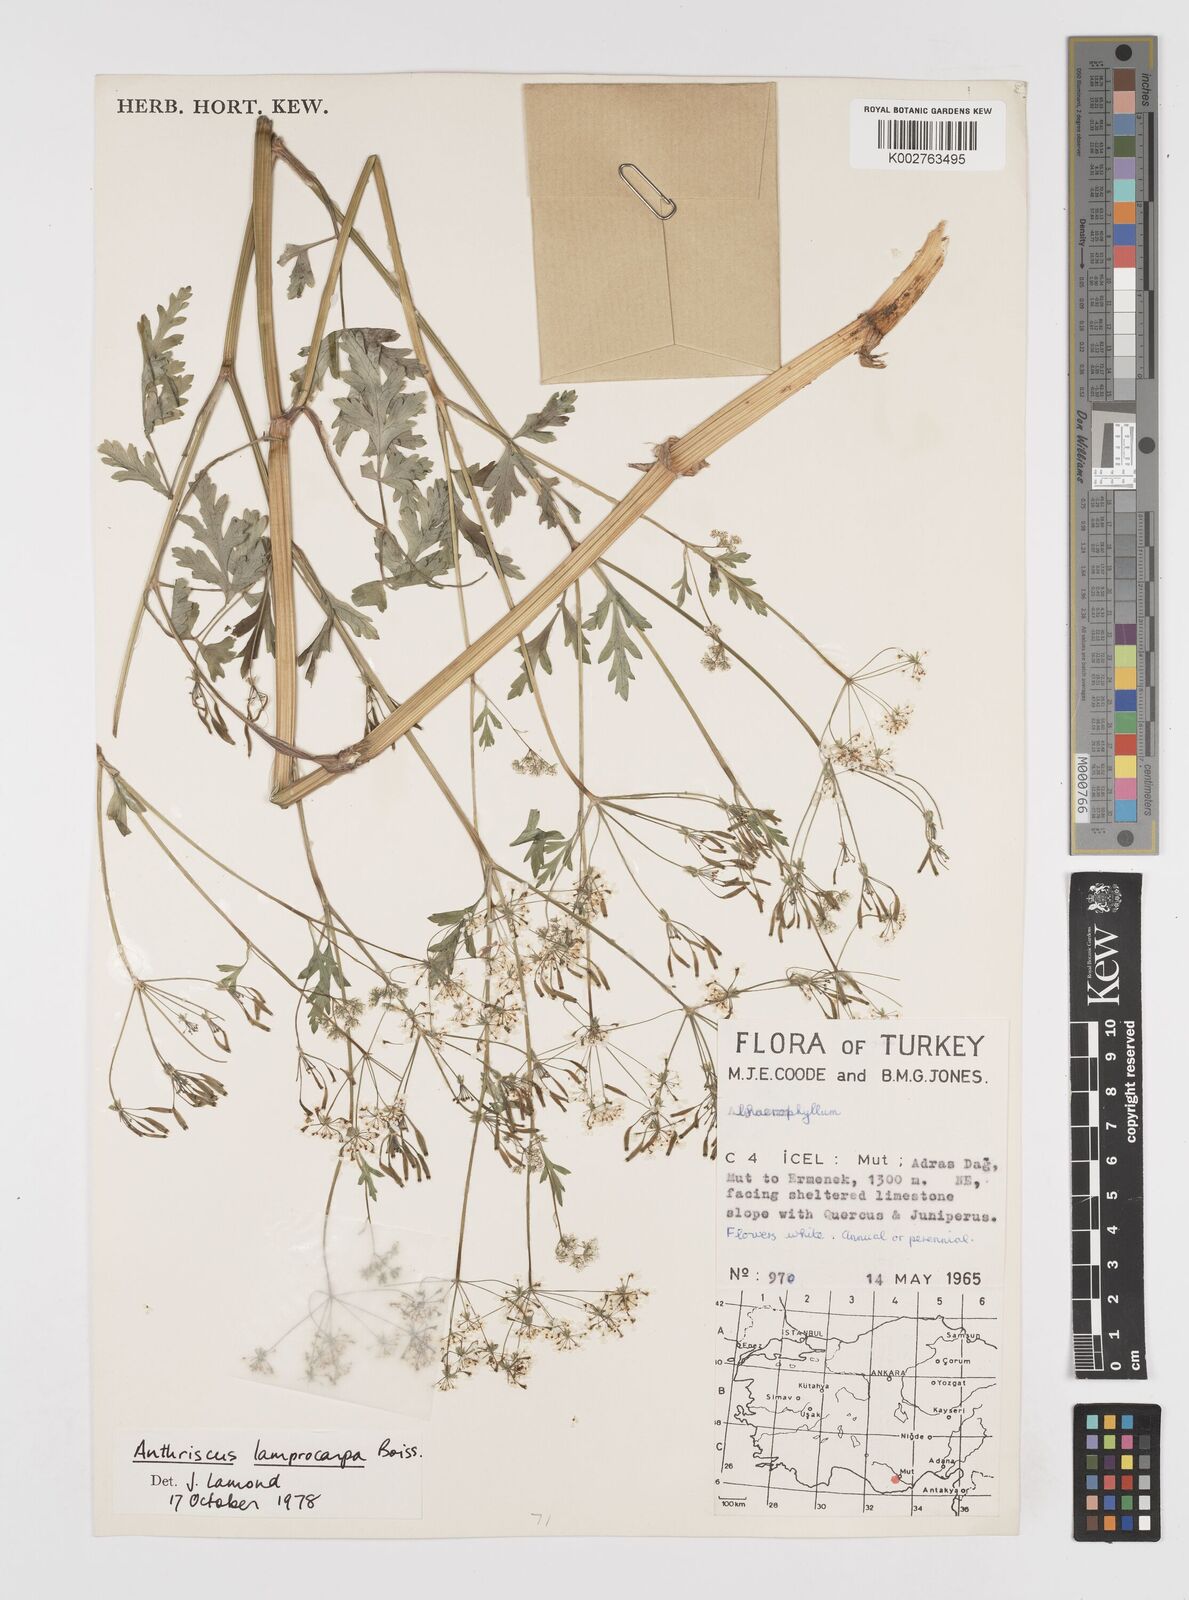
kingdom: Plantae
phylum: Tracheophyta
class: Magnoliopsida
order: Apiales
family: Apiaceae
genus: Anthriscus
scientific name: Anthriscus lamprocarpa
